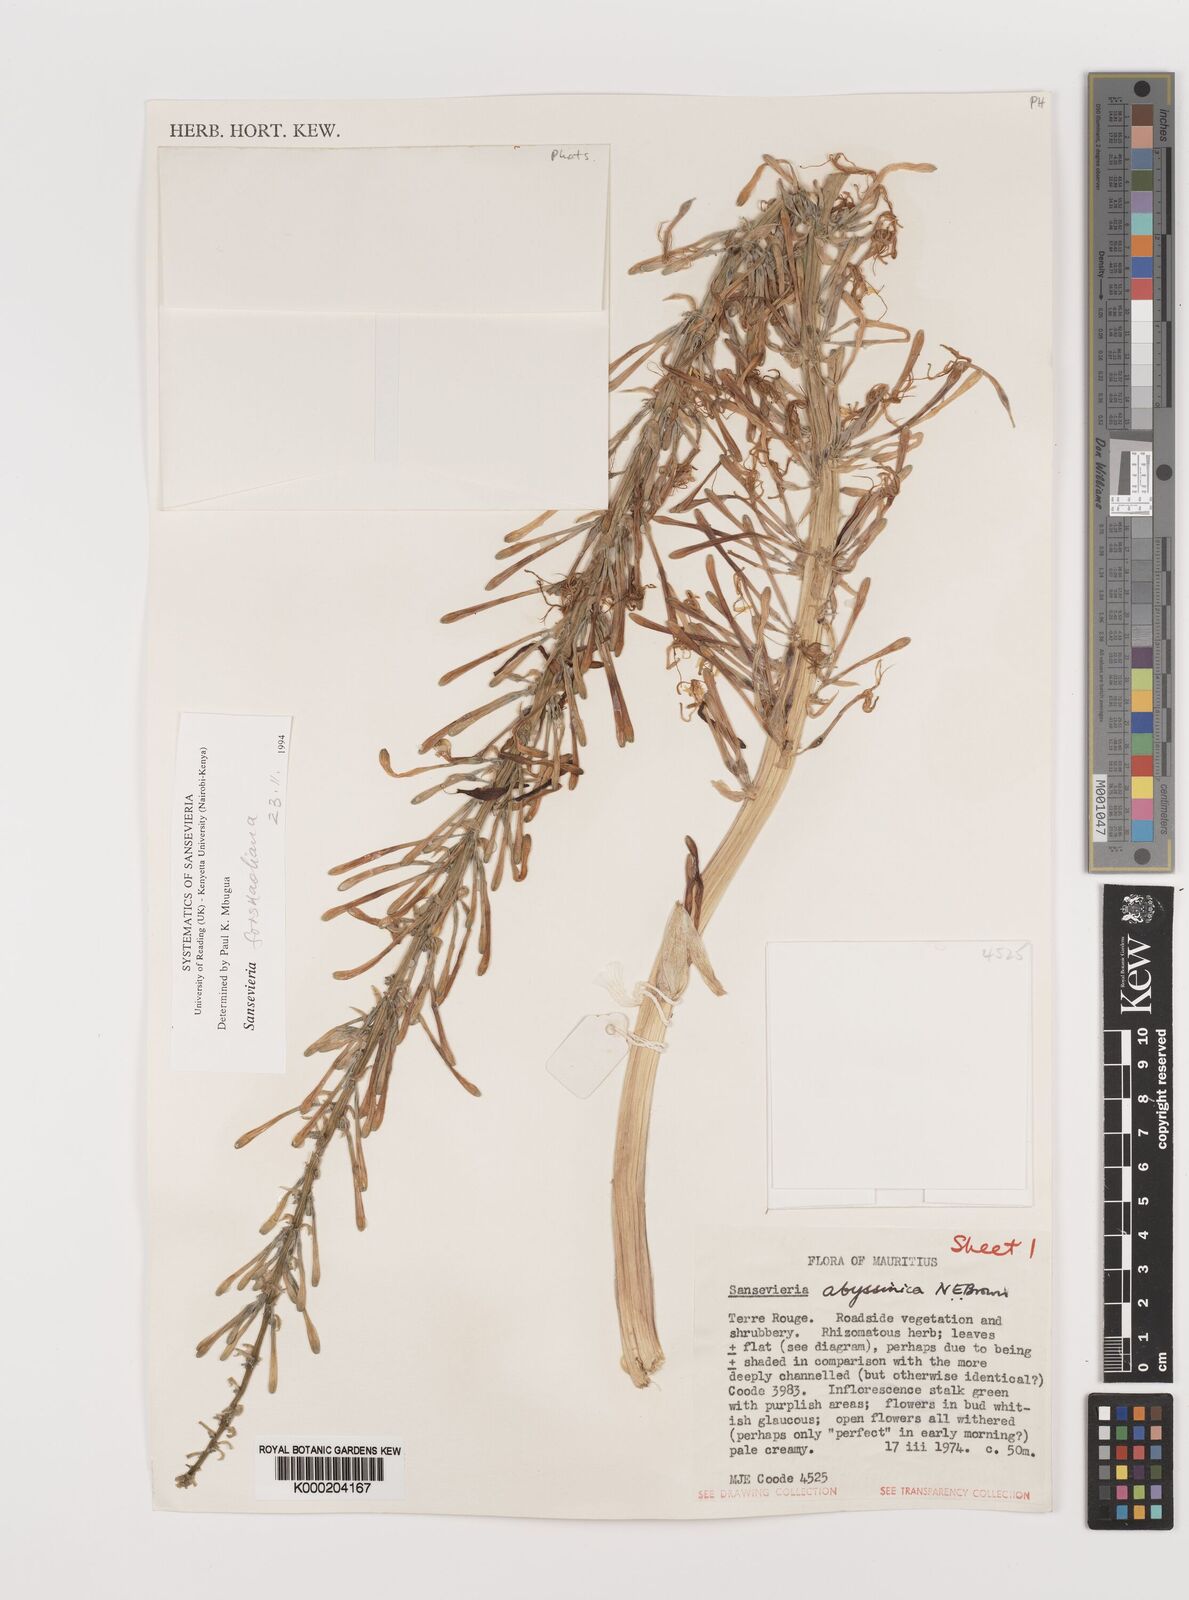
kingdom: Plantae
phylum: Tracheophyta
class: Liliopsida
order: Asparagales
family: Asparagaceae
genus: Dracaena
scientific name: Dracaena
